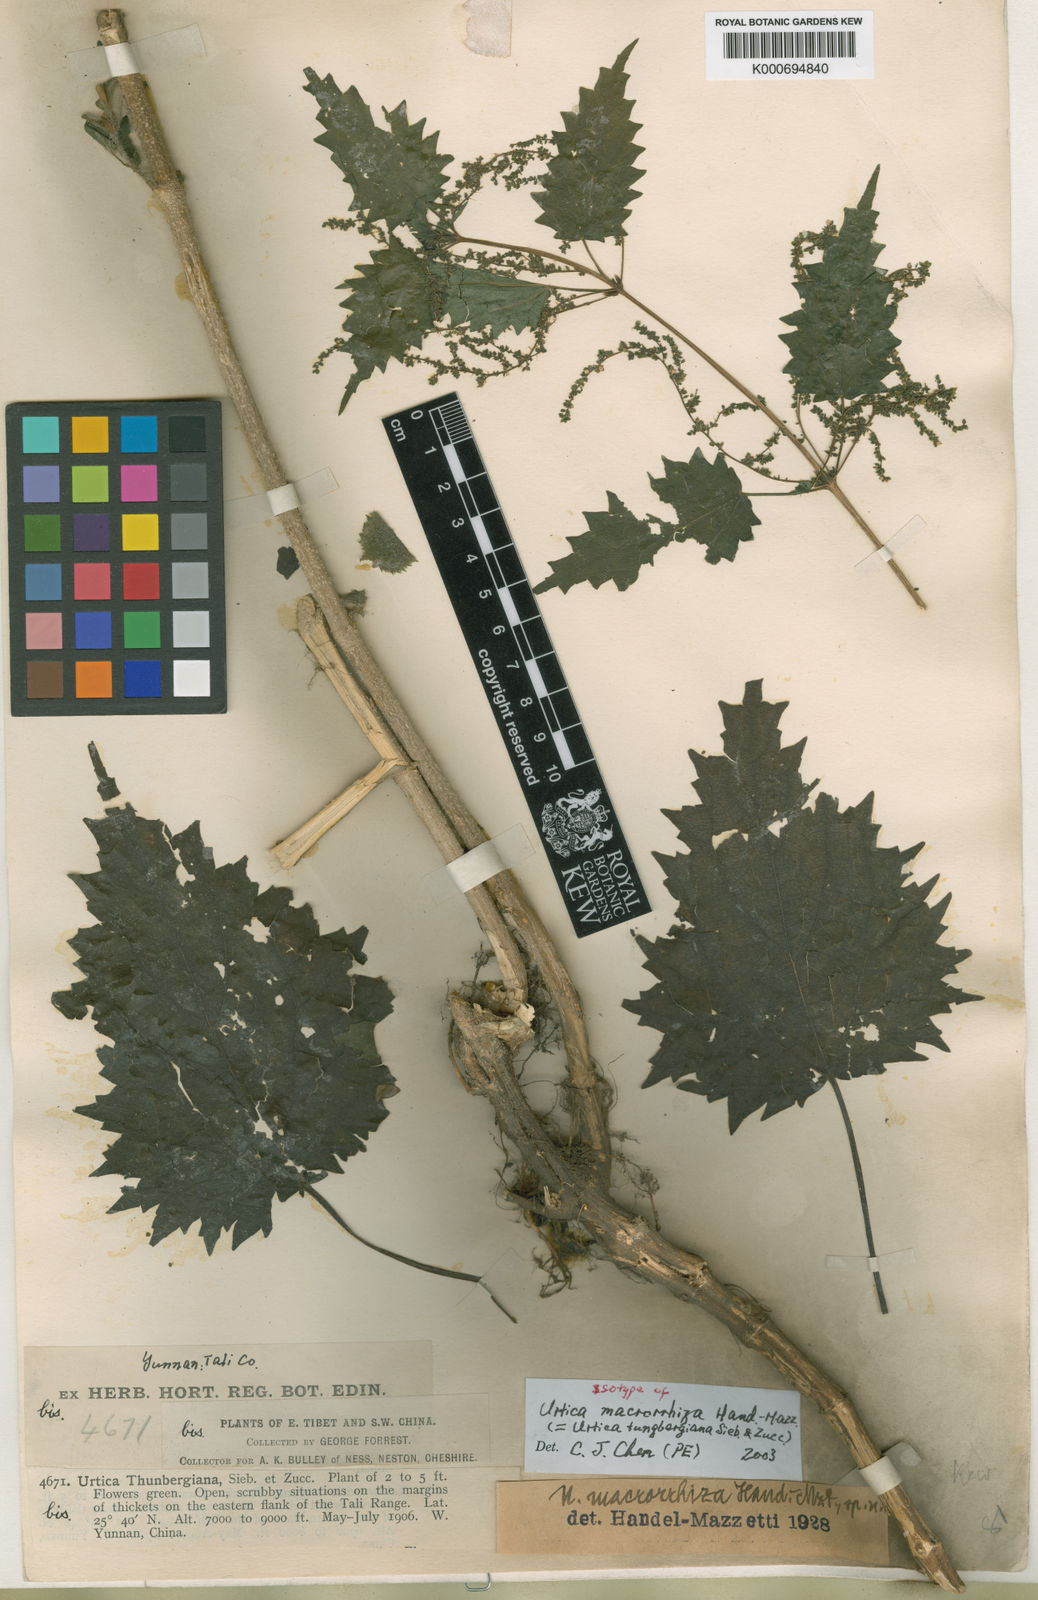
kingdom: Plantae
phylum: Tracheophyta
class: Magnoliopsida
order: Rosales
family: Urticaceae
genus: Urtica
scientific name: Urtica thunbergiana
